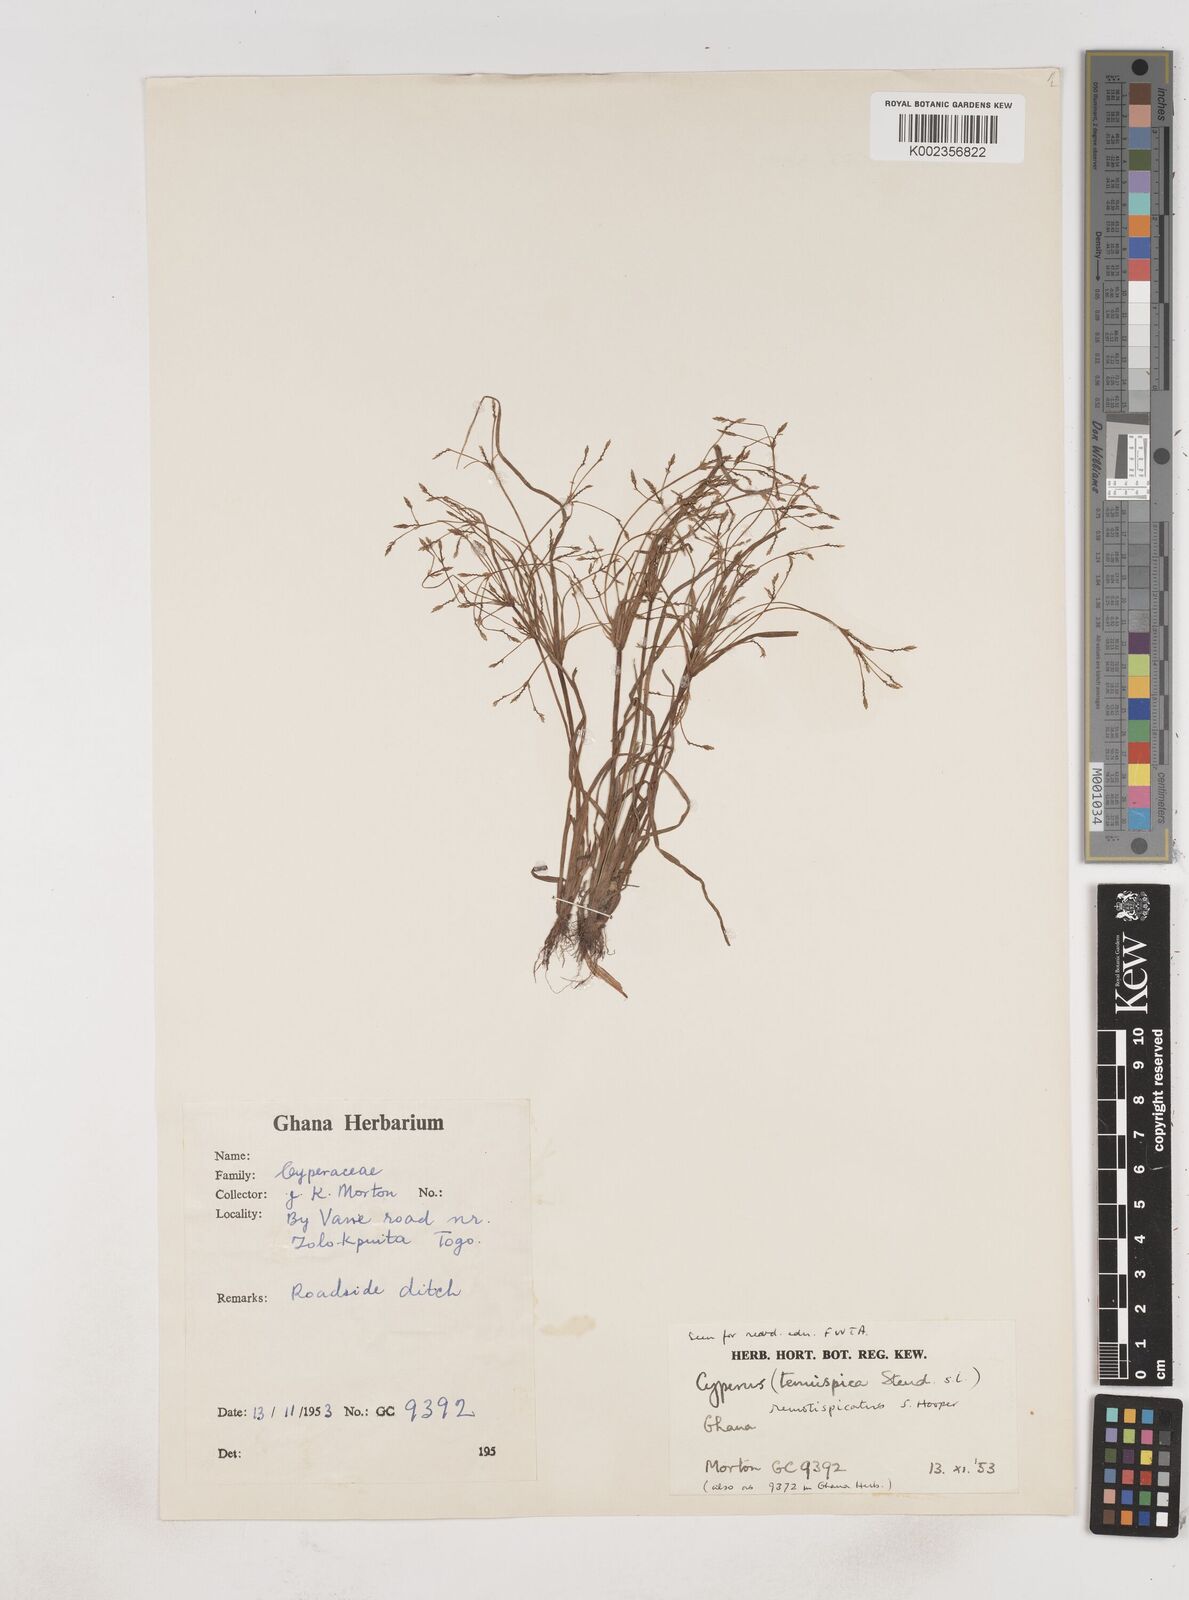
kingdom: Plantae
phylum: Tracheophyta
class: Liliopsida
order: Poales
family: Cyperaceae
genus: Cyperus
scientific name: Cyperus remotispicatus
